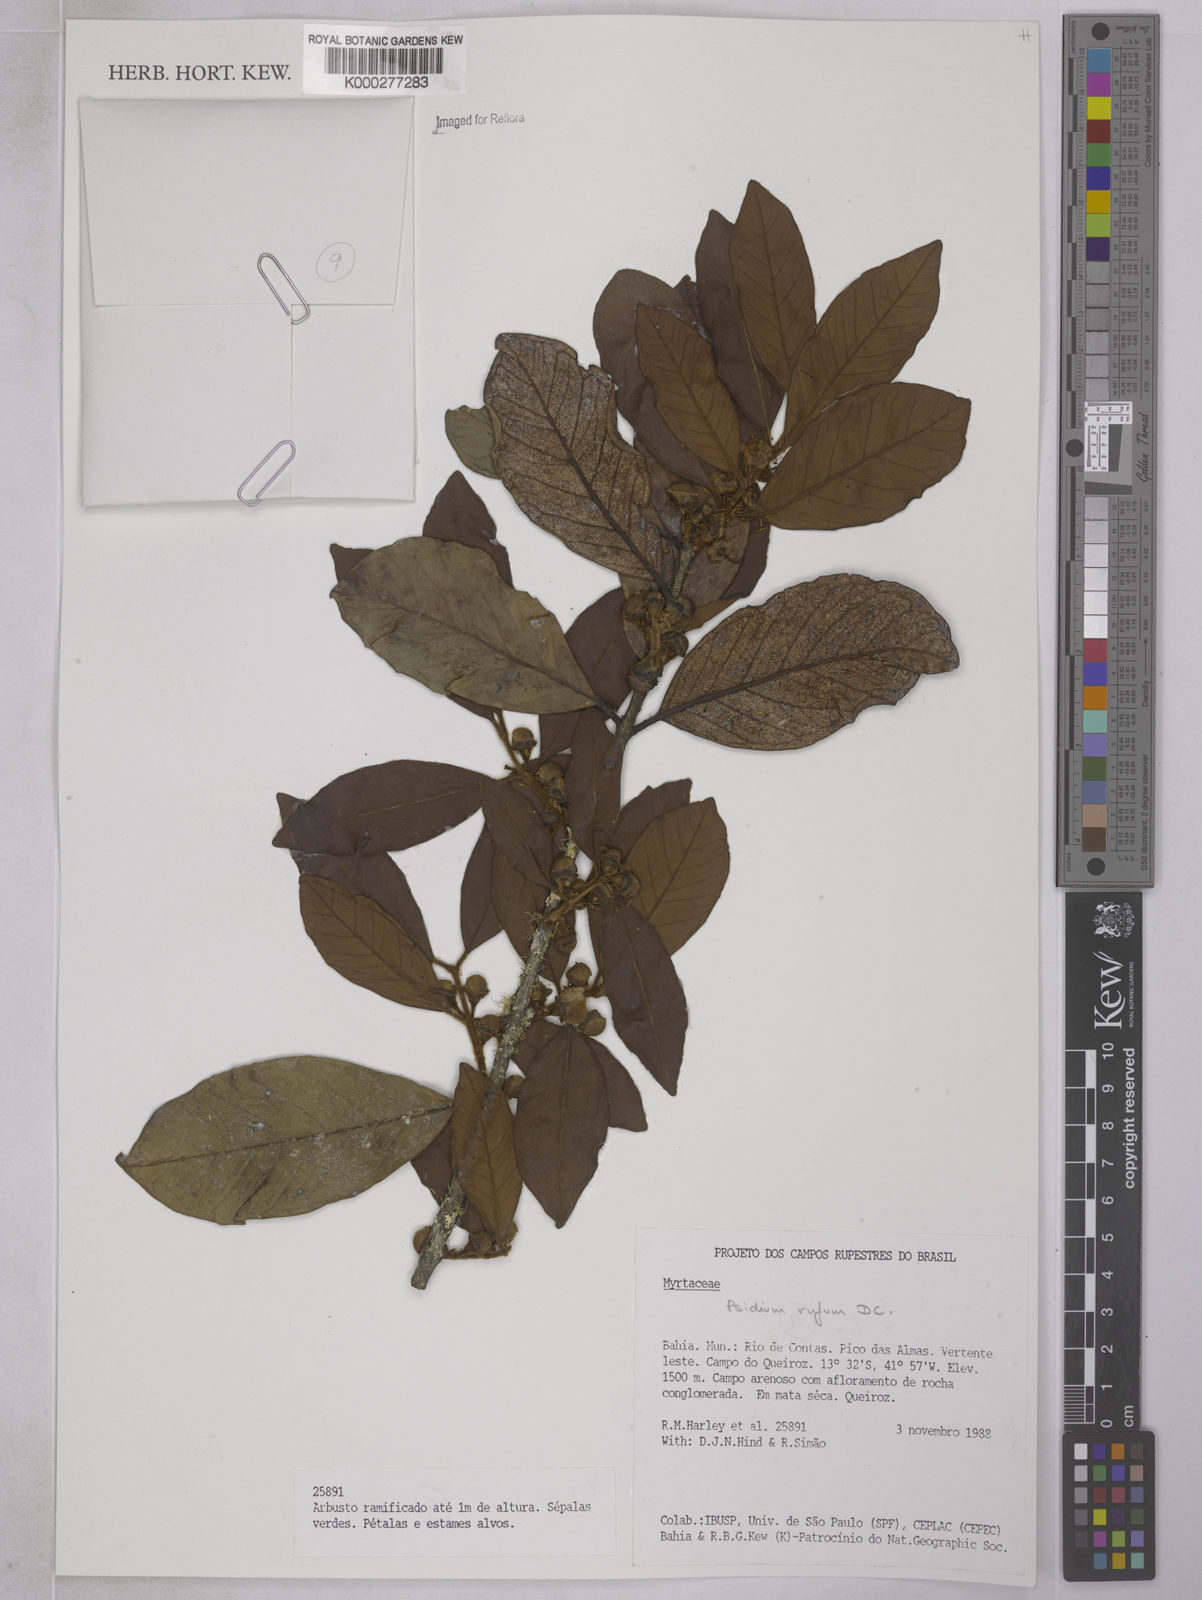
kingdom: Plantae
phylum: Tracheophyta
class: Magnoliopsida
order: Myrtales
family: Myrtaceae
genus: Psidium
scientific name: Psidium rufum
